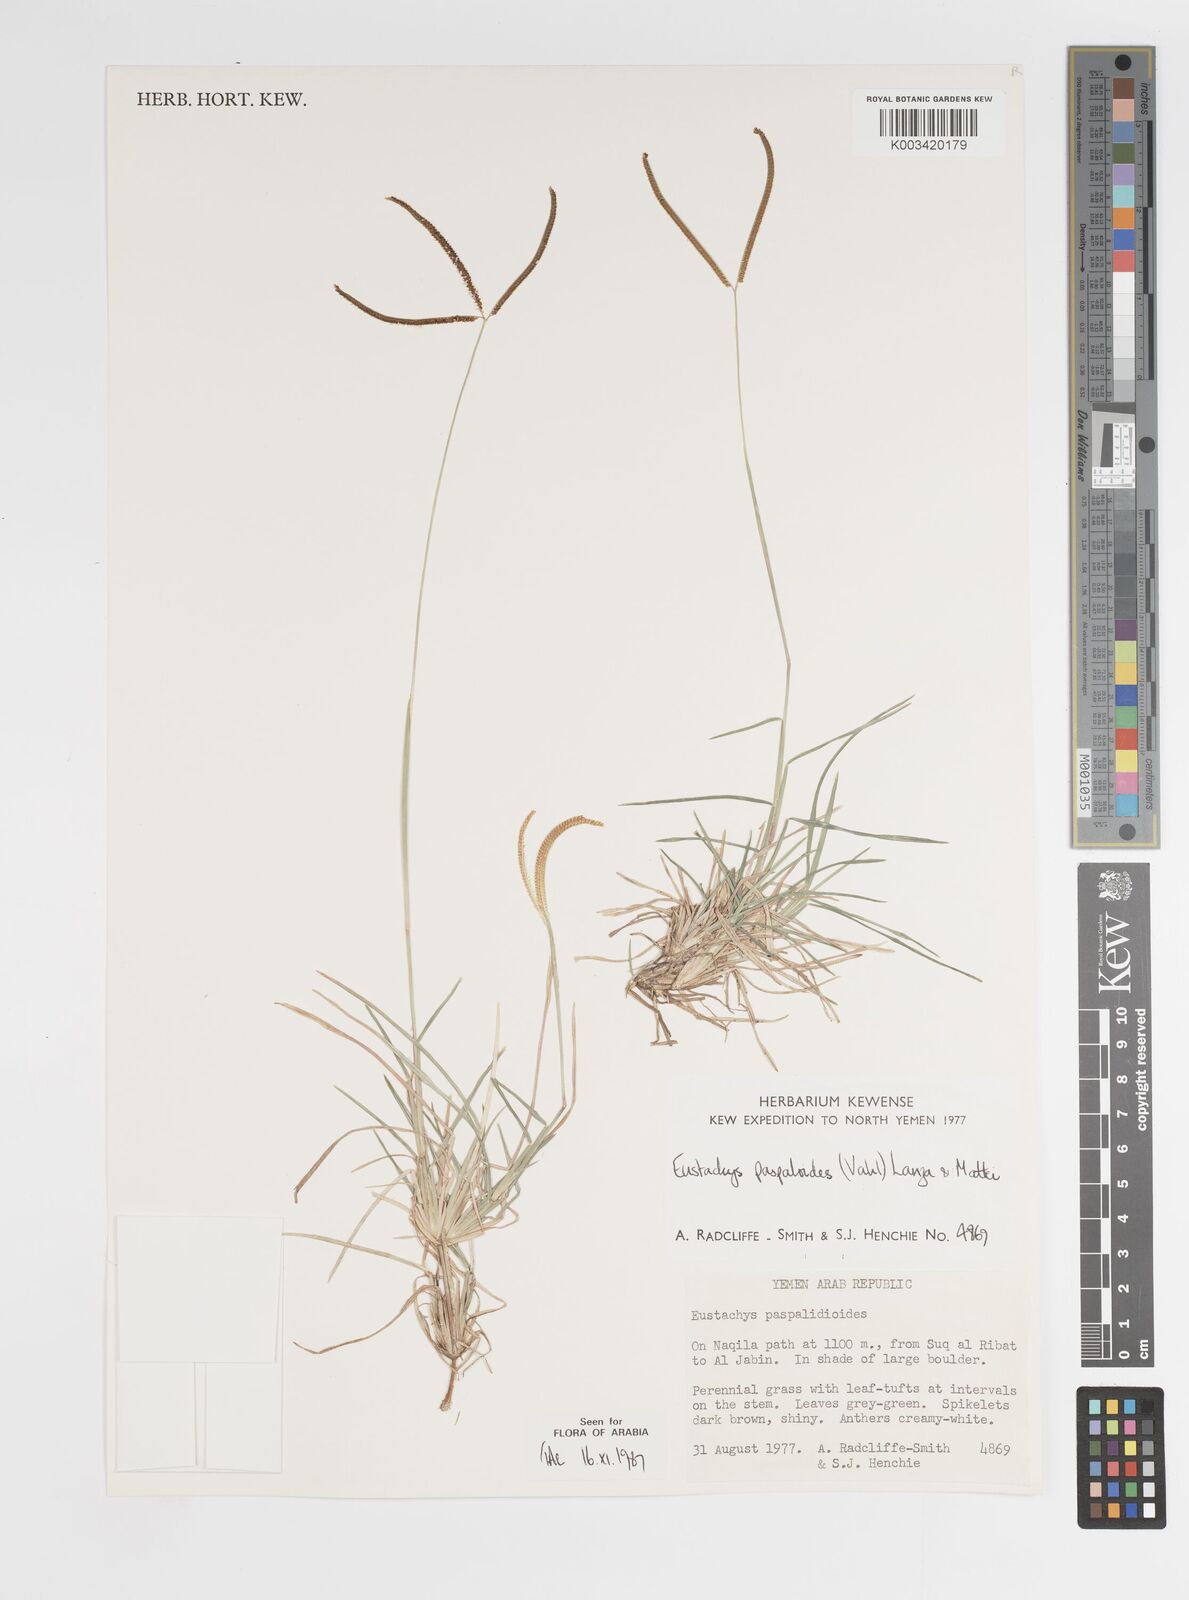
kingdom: Plantae
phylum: Tracheophyta
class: Liliopsida
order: Poales
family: Poaceae
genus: Eustachys
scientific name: Eustachys paspaloides
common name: Caribbean fingergrass
